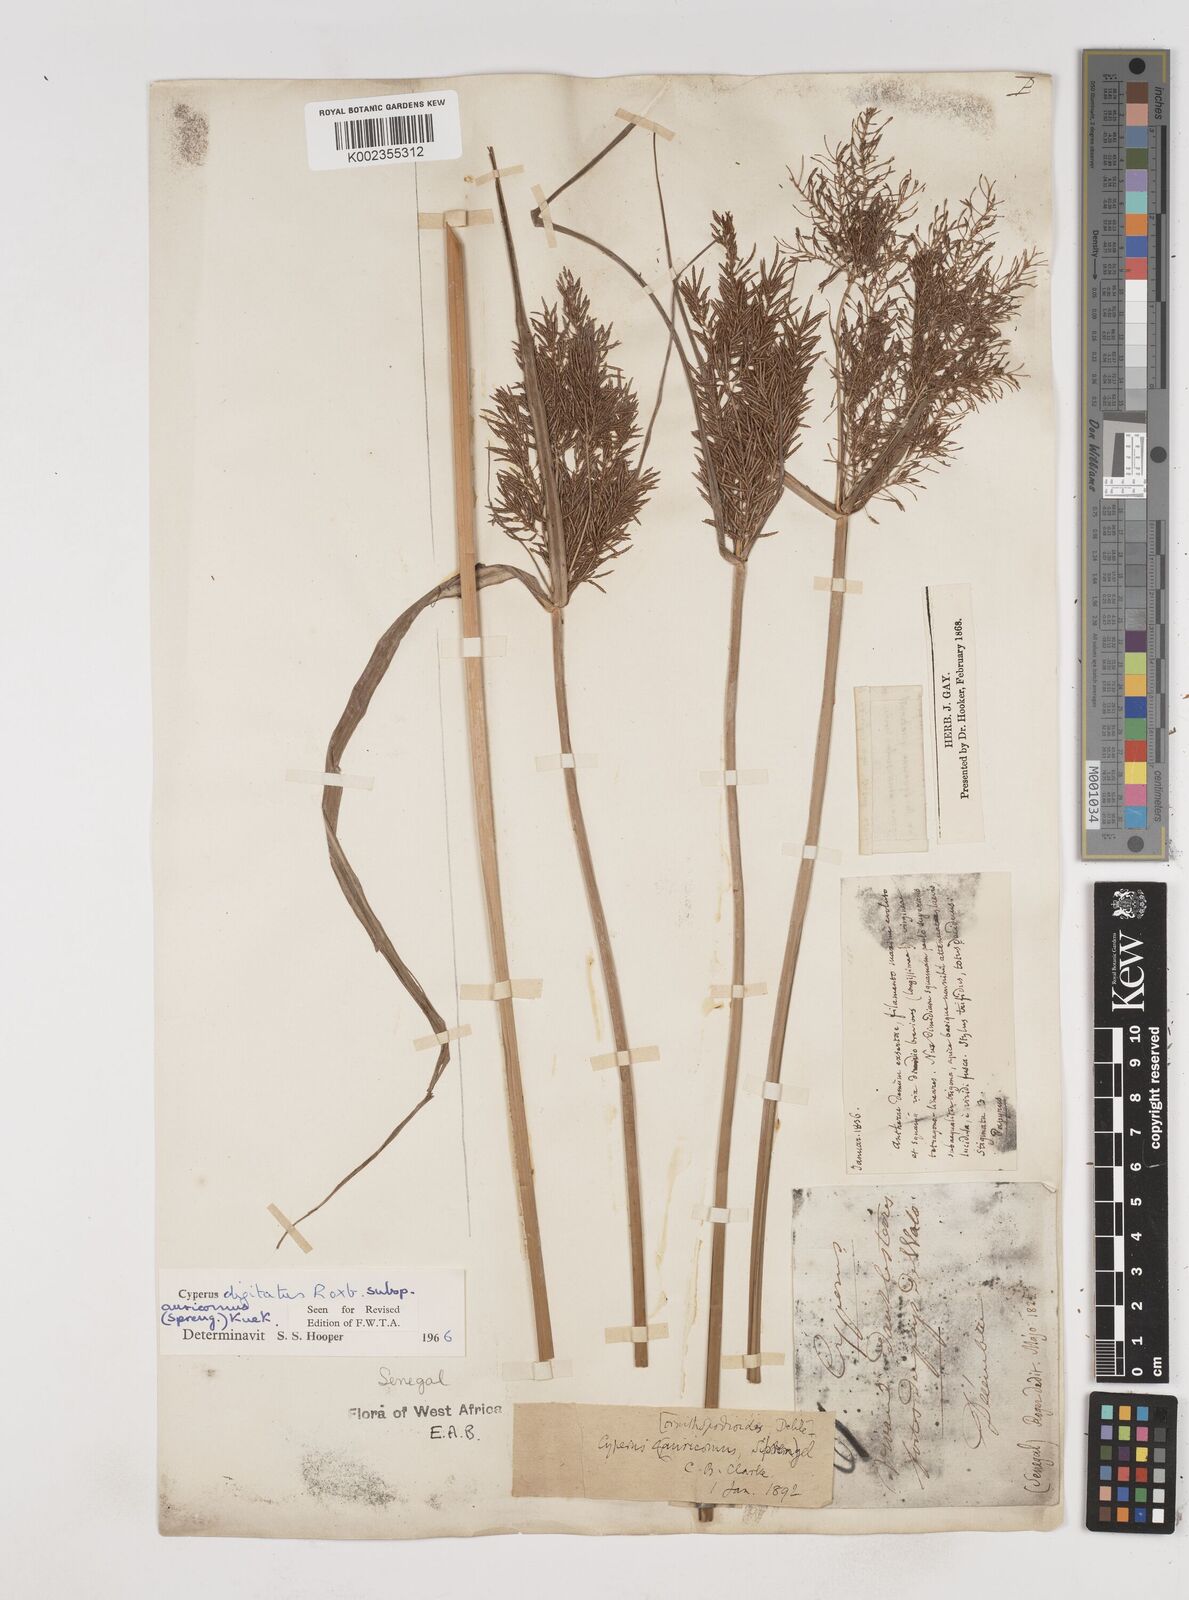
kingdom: Plantae
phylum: Tracheophyta
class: Liliopsida
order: Poales
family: Cyperaceae
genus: Cyperus
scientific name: Cyperus digitatus
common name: Finger flatsedge
